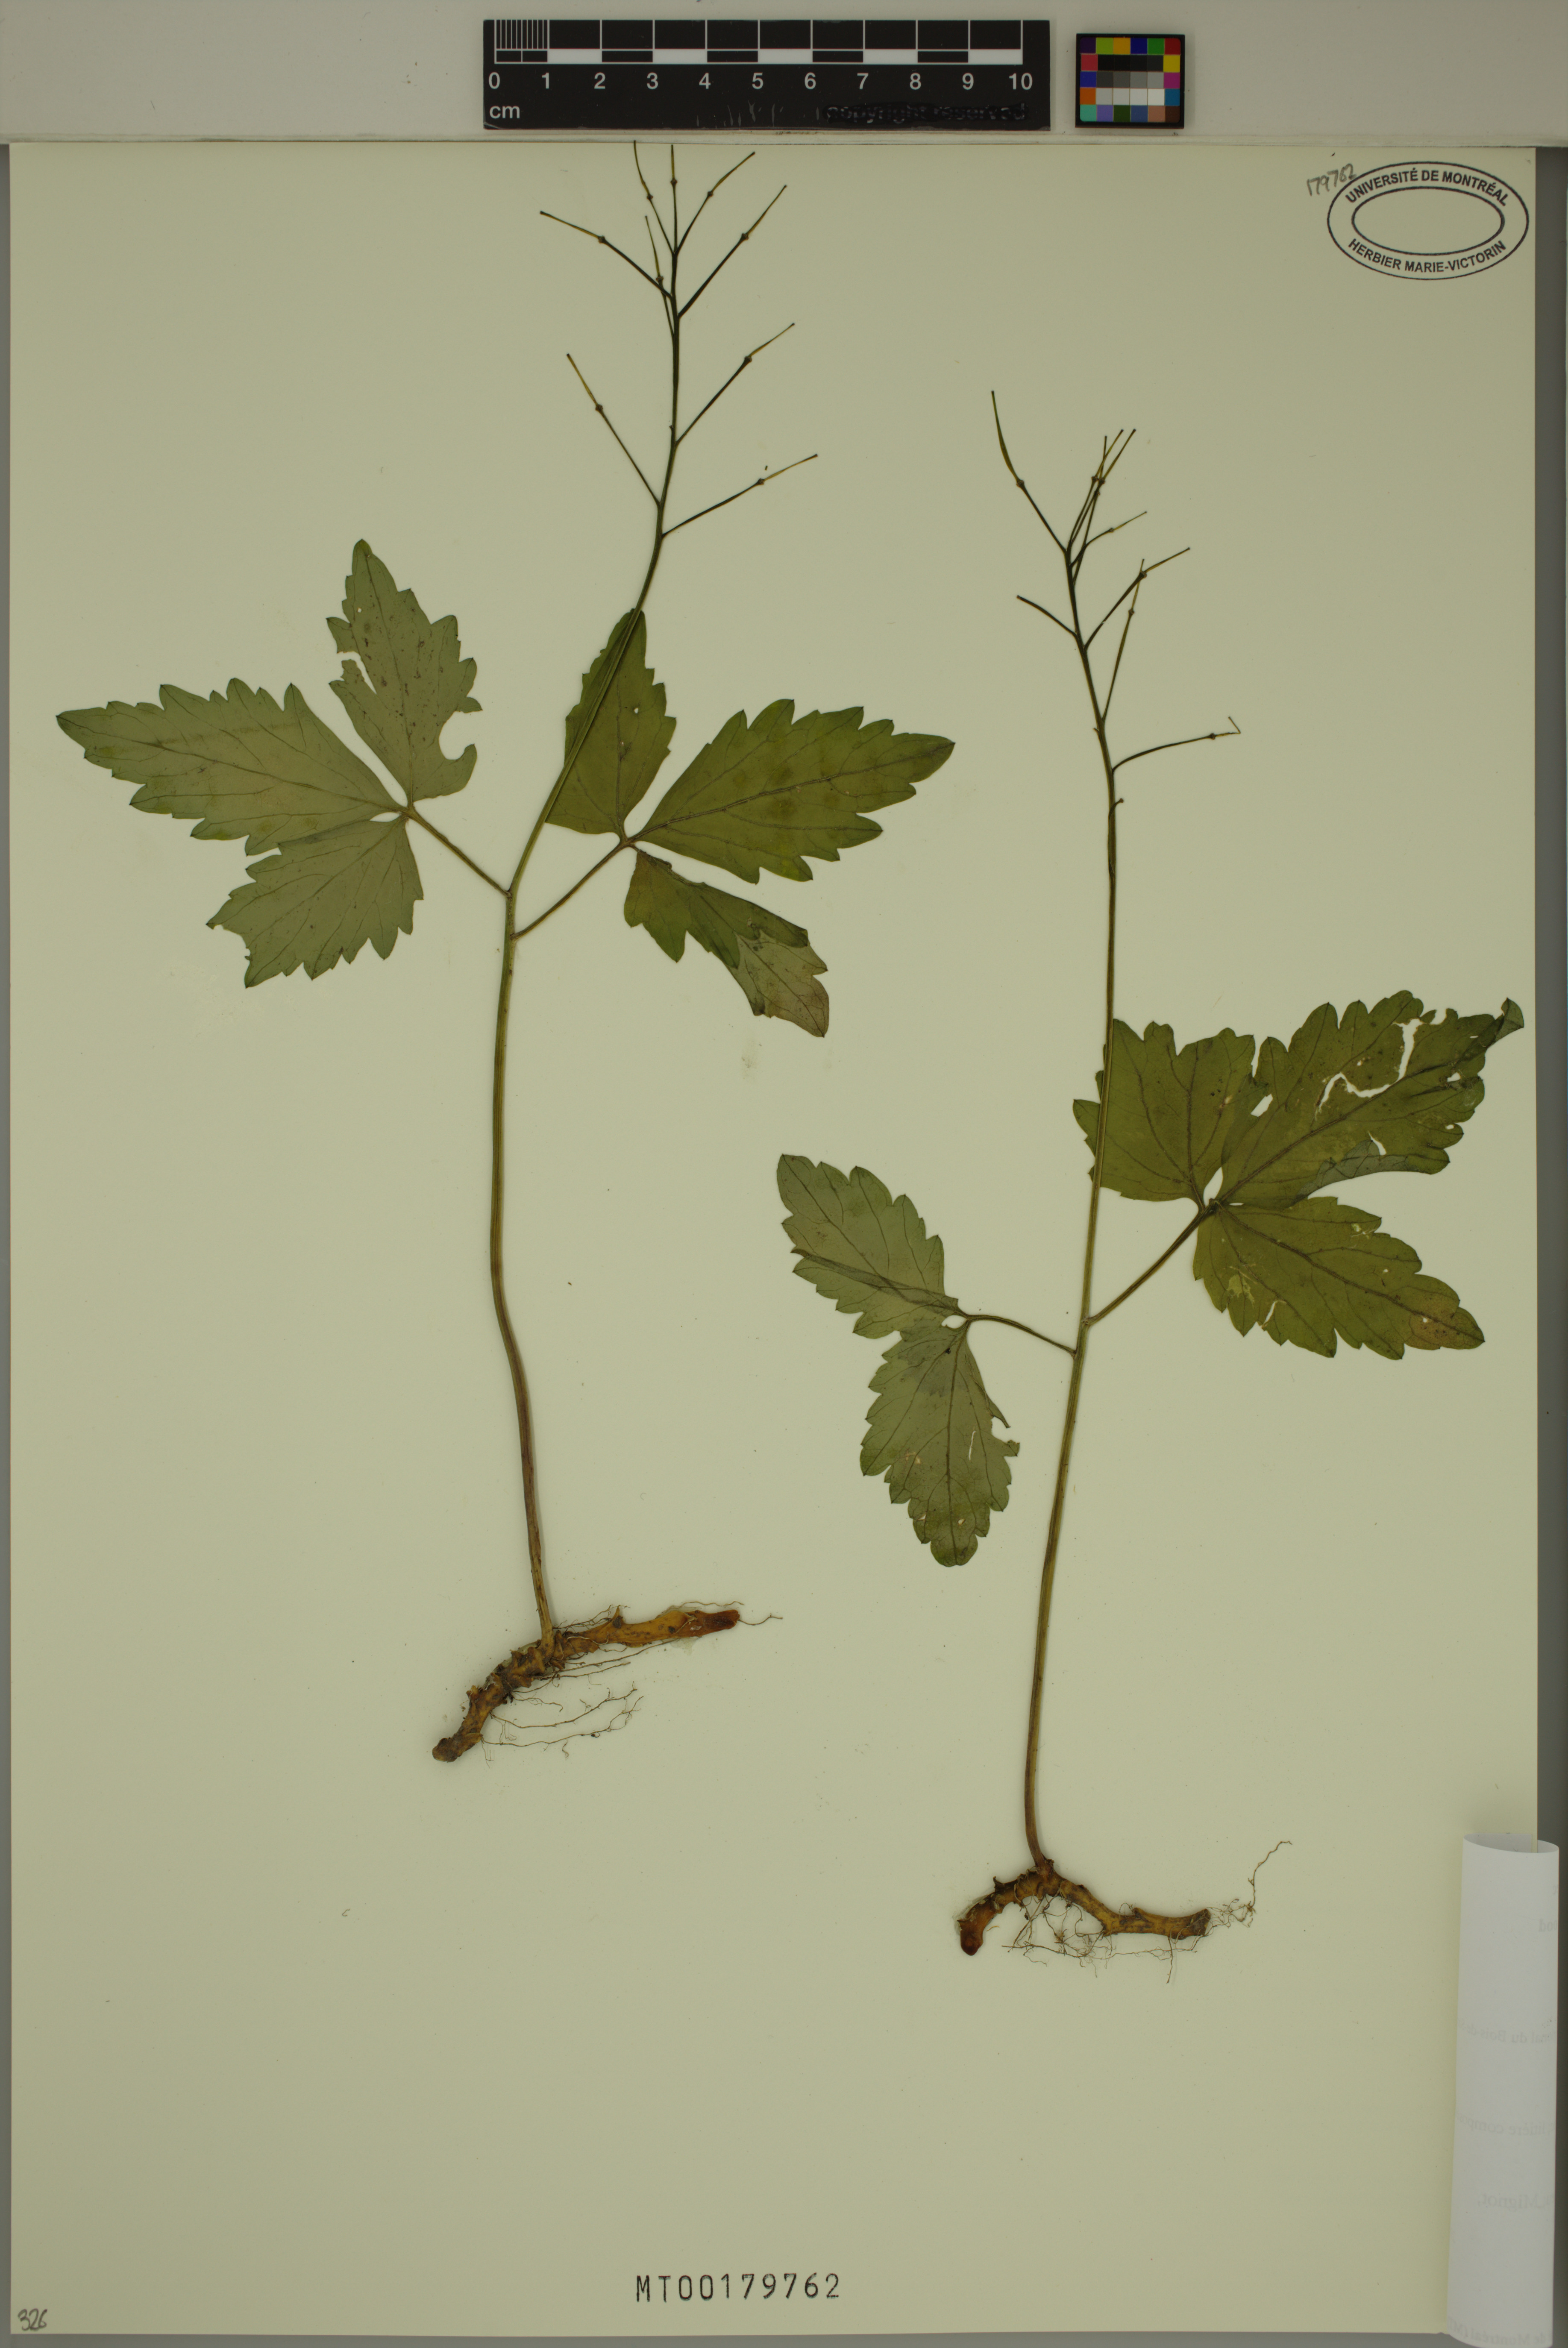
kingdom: Plantae
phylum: Tracheophyta
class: Magnoliopsida
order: Brassicales
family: Brassicaceae
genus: Cardamine
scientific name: Cardamine diphylla
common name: Broad-leaved toothwort
